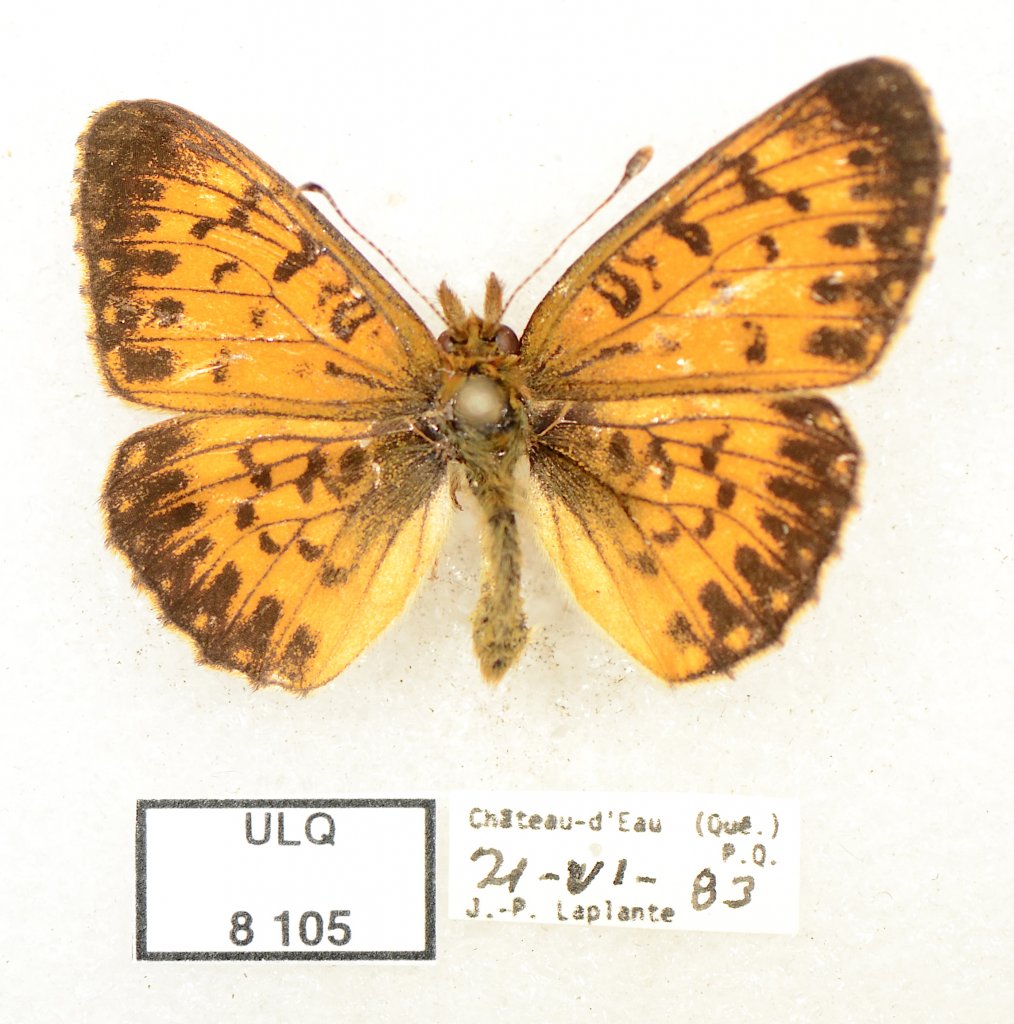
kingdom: Animalia
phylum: Arthropoda
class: Insecta
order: Lepidoptera
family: Nymphalidae
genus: Boloria
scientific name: Boloria selene
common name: Silver-bordered Fritillary
